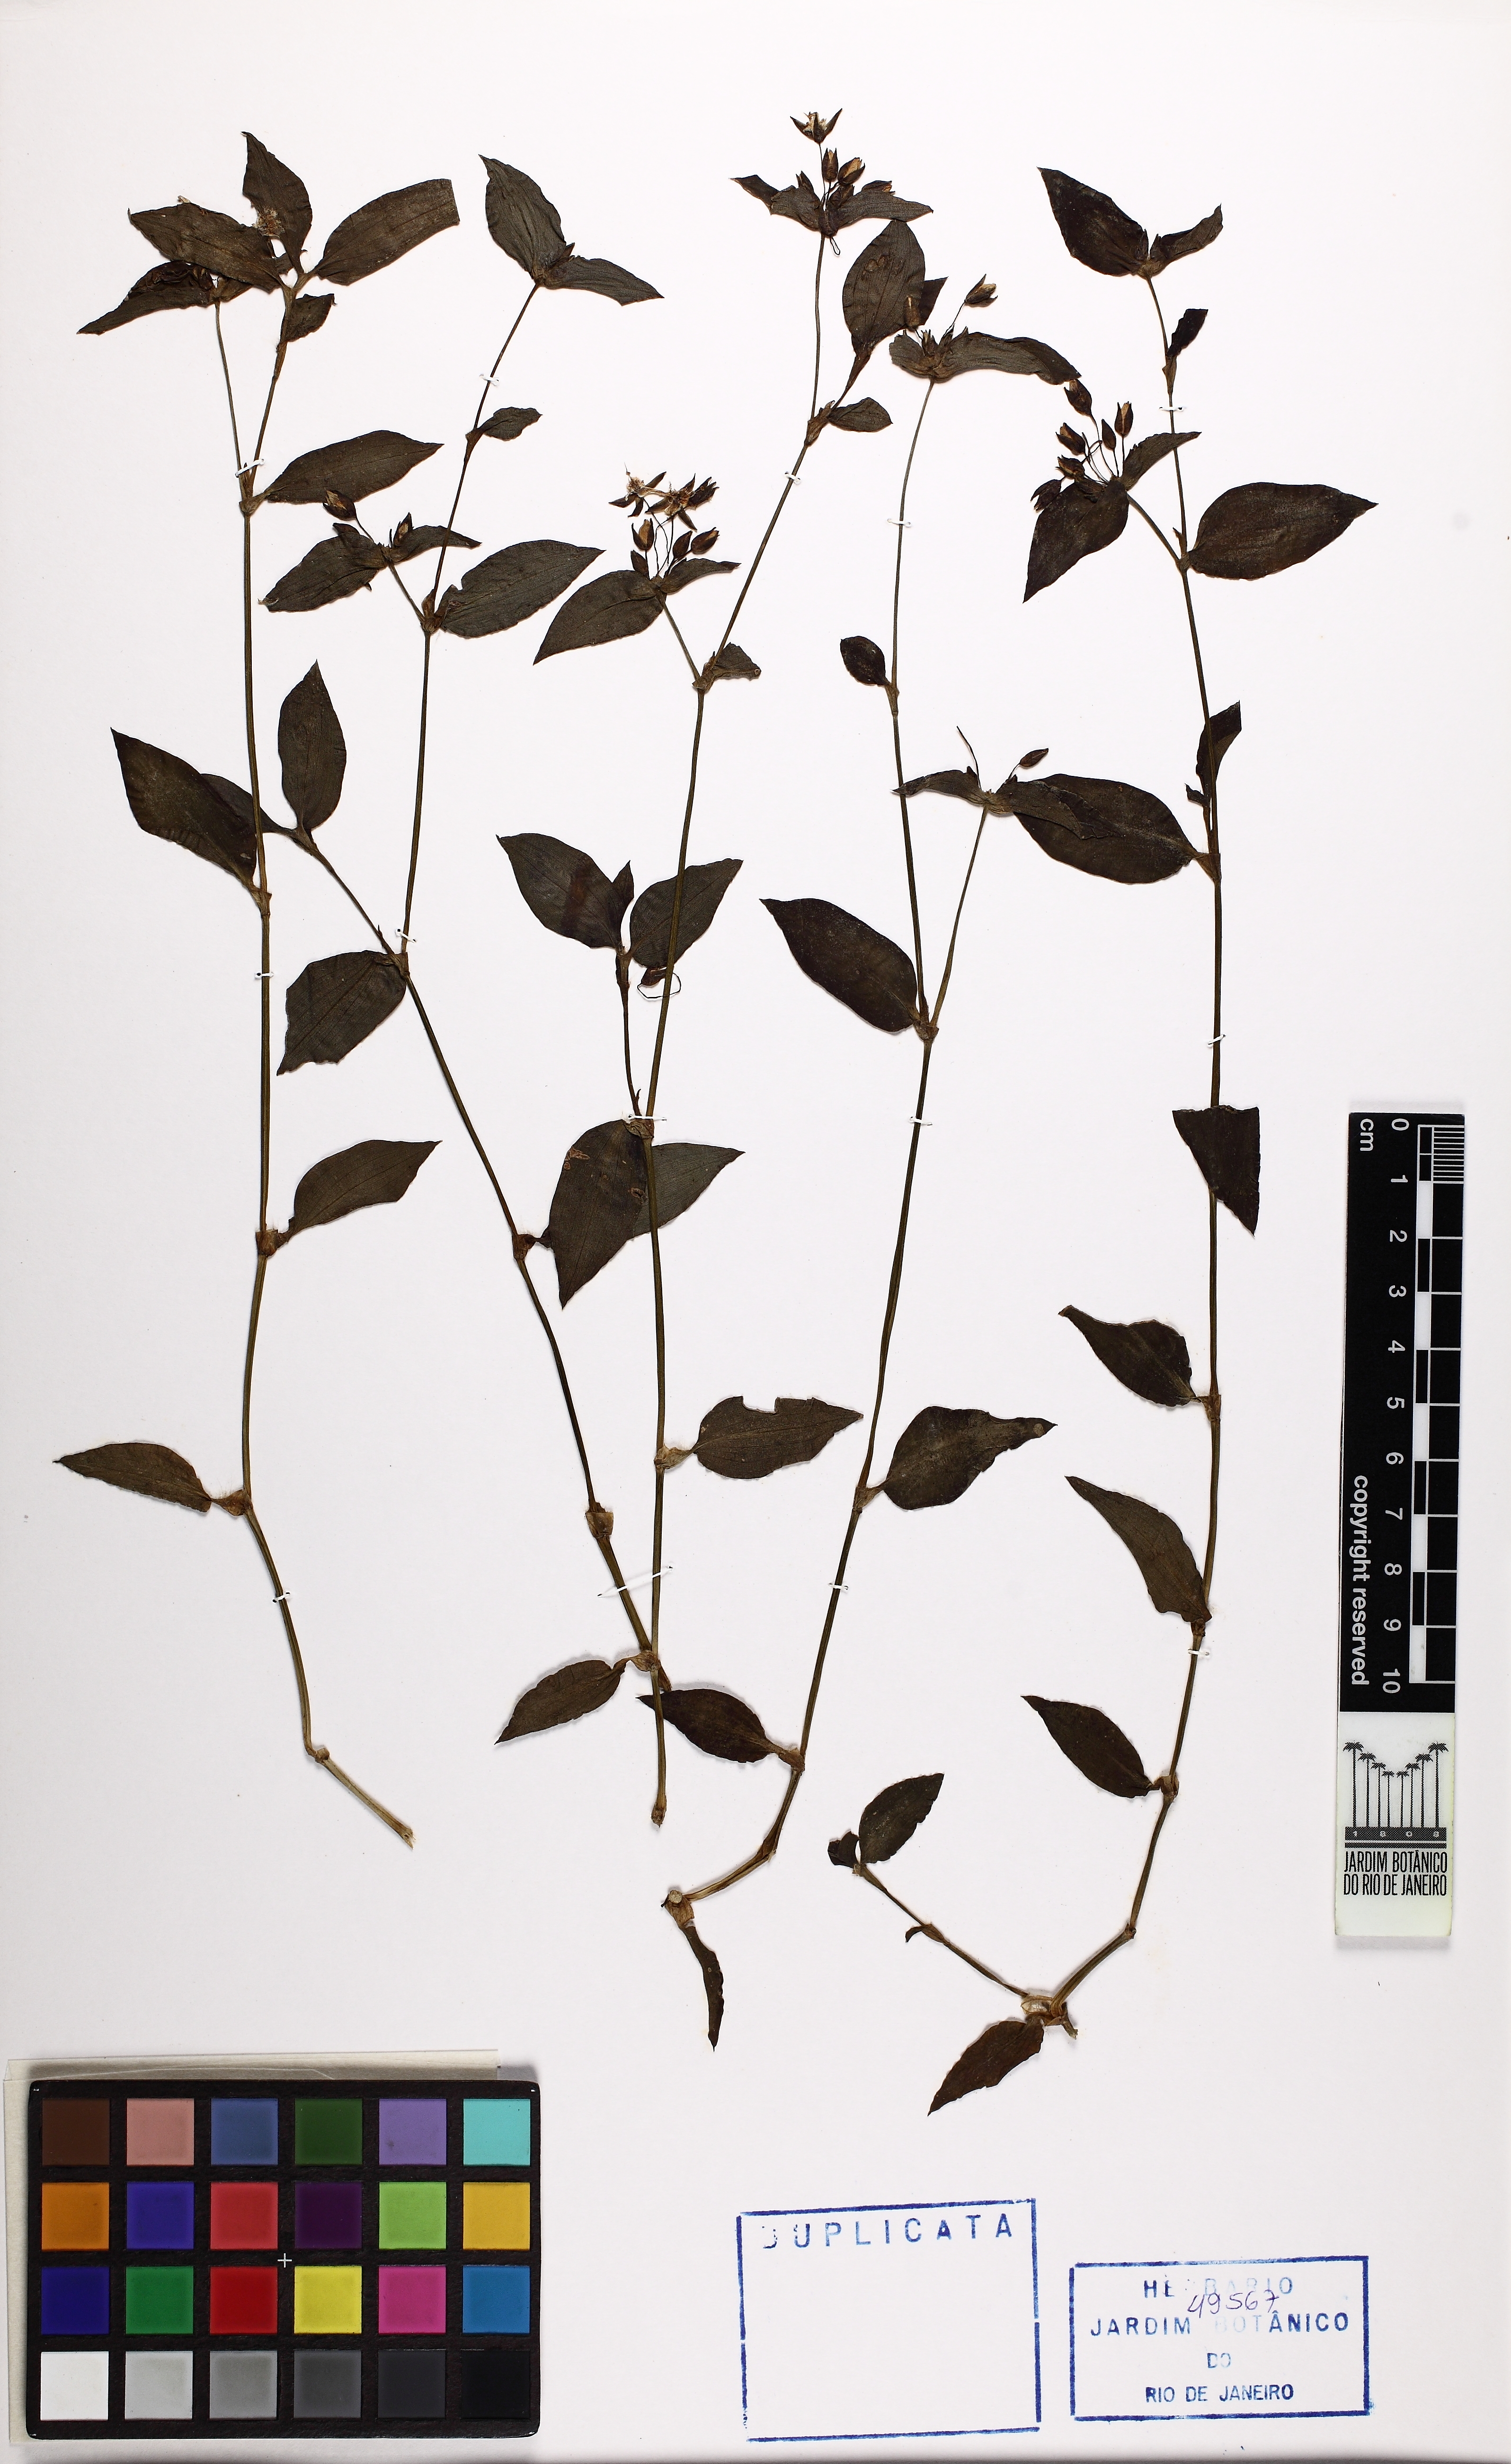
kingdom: Plantae
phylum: Tracheophyta
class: Liliopsida
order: Commelinales
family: Commelinaceae
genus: Tradescantia
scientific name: Tradescantia fluminensis
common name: Wandering-jew
